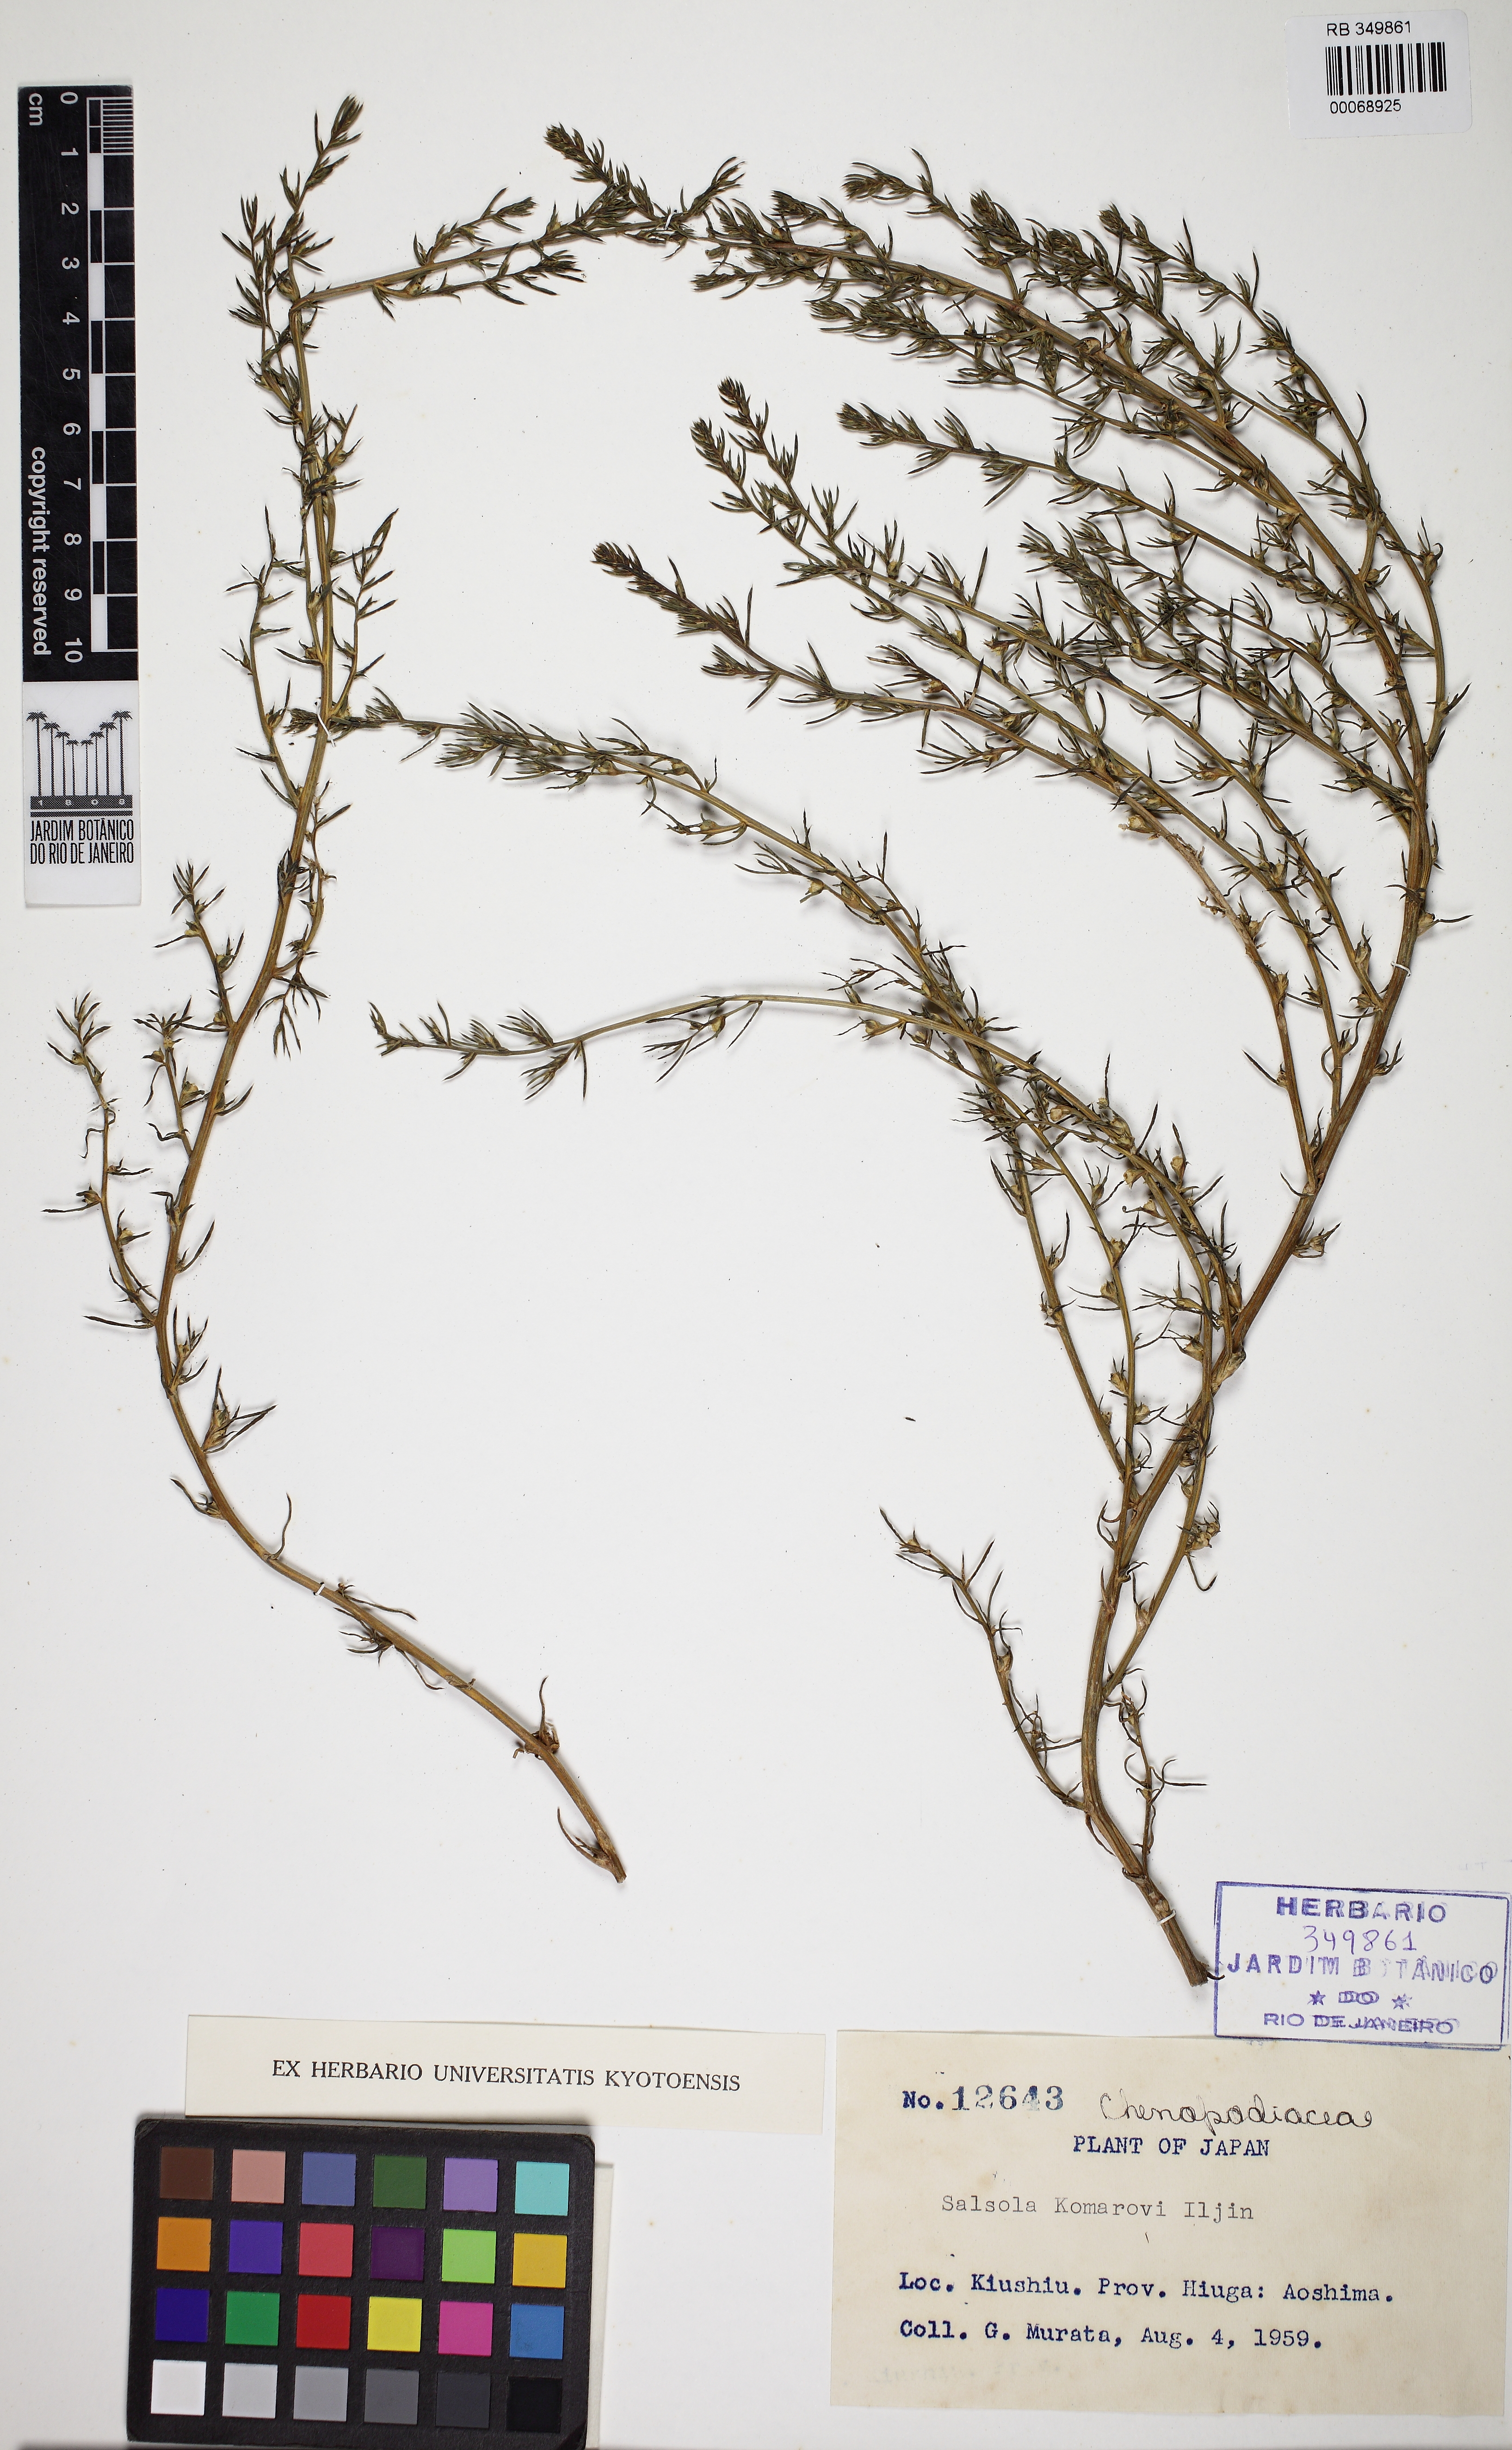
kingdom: Plantae
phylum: Tracheophyta
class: Magnoliopsida
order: Caryophyllales
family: Amaranthaceae
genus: Chenopodiastrum
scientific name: Chenopodiastrum murale
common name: Sowbane
